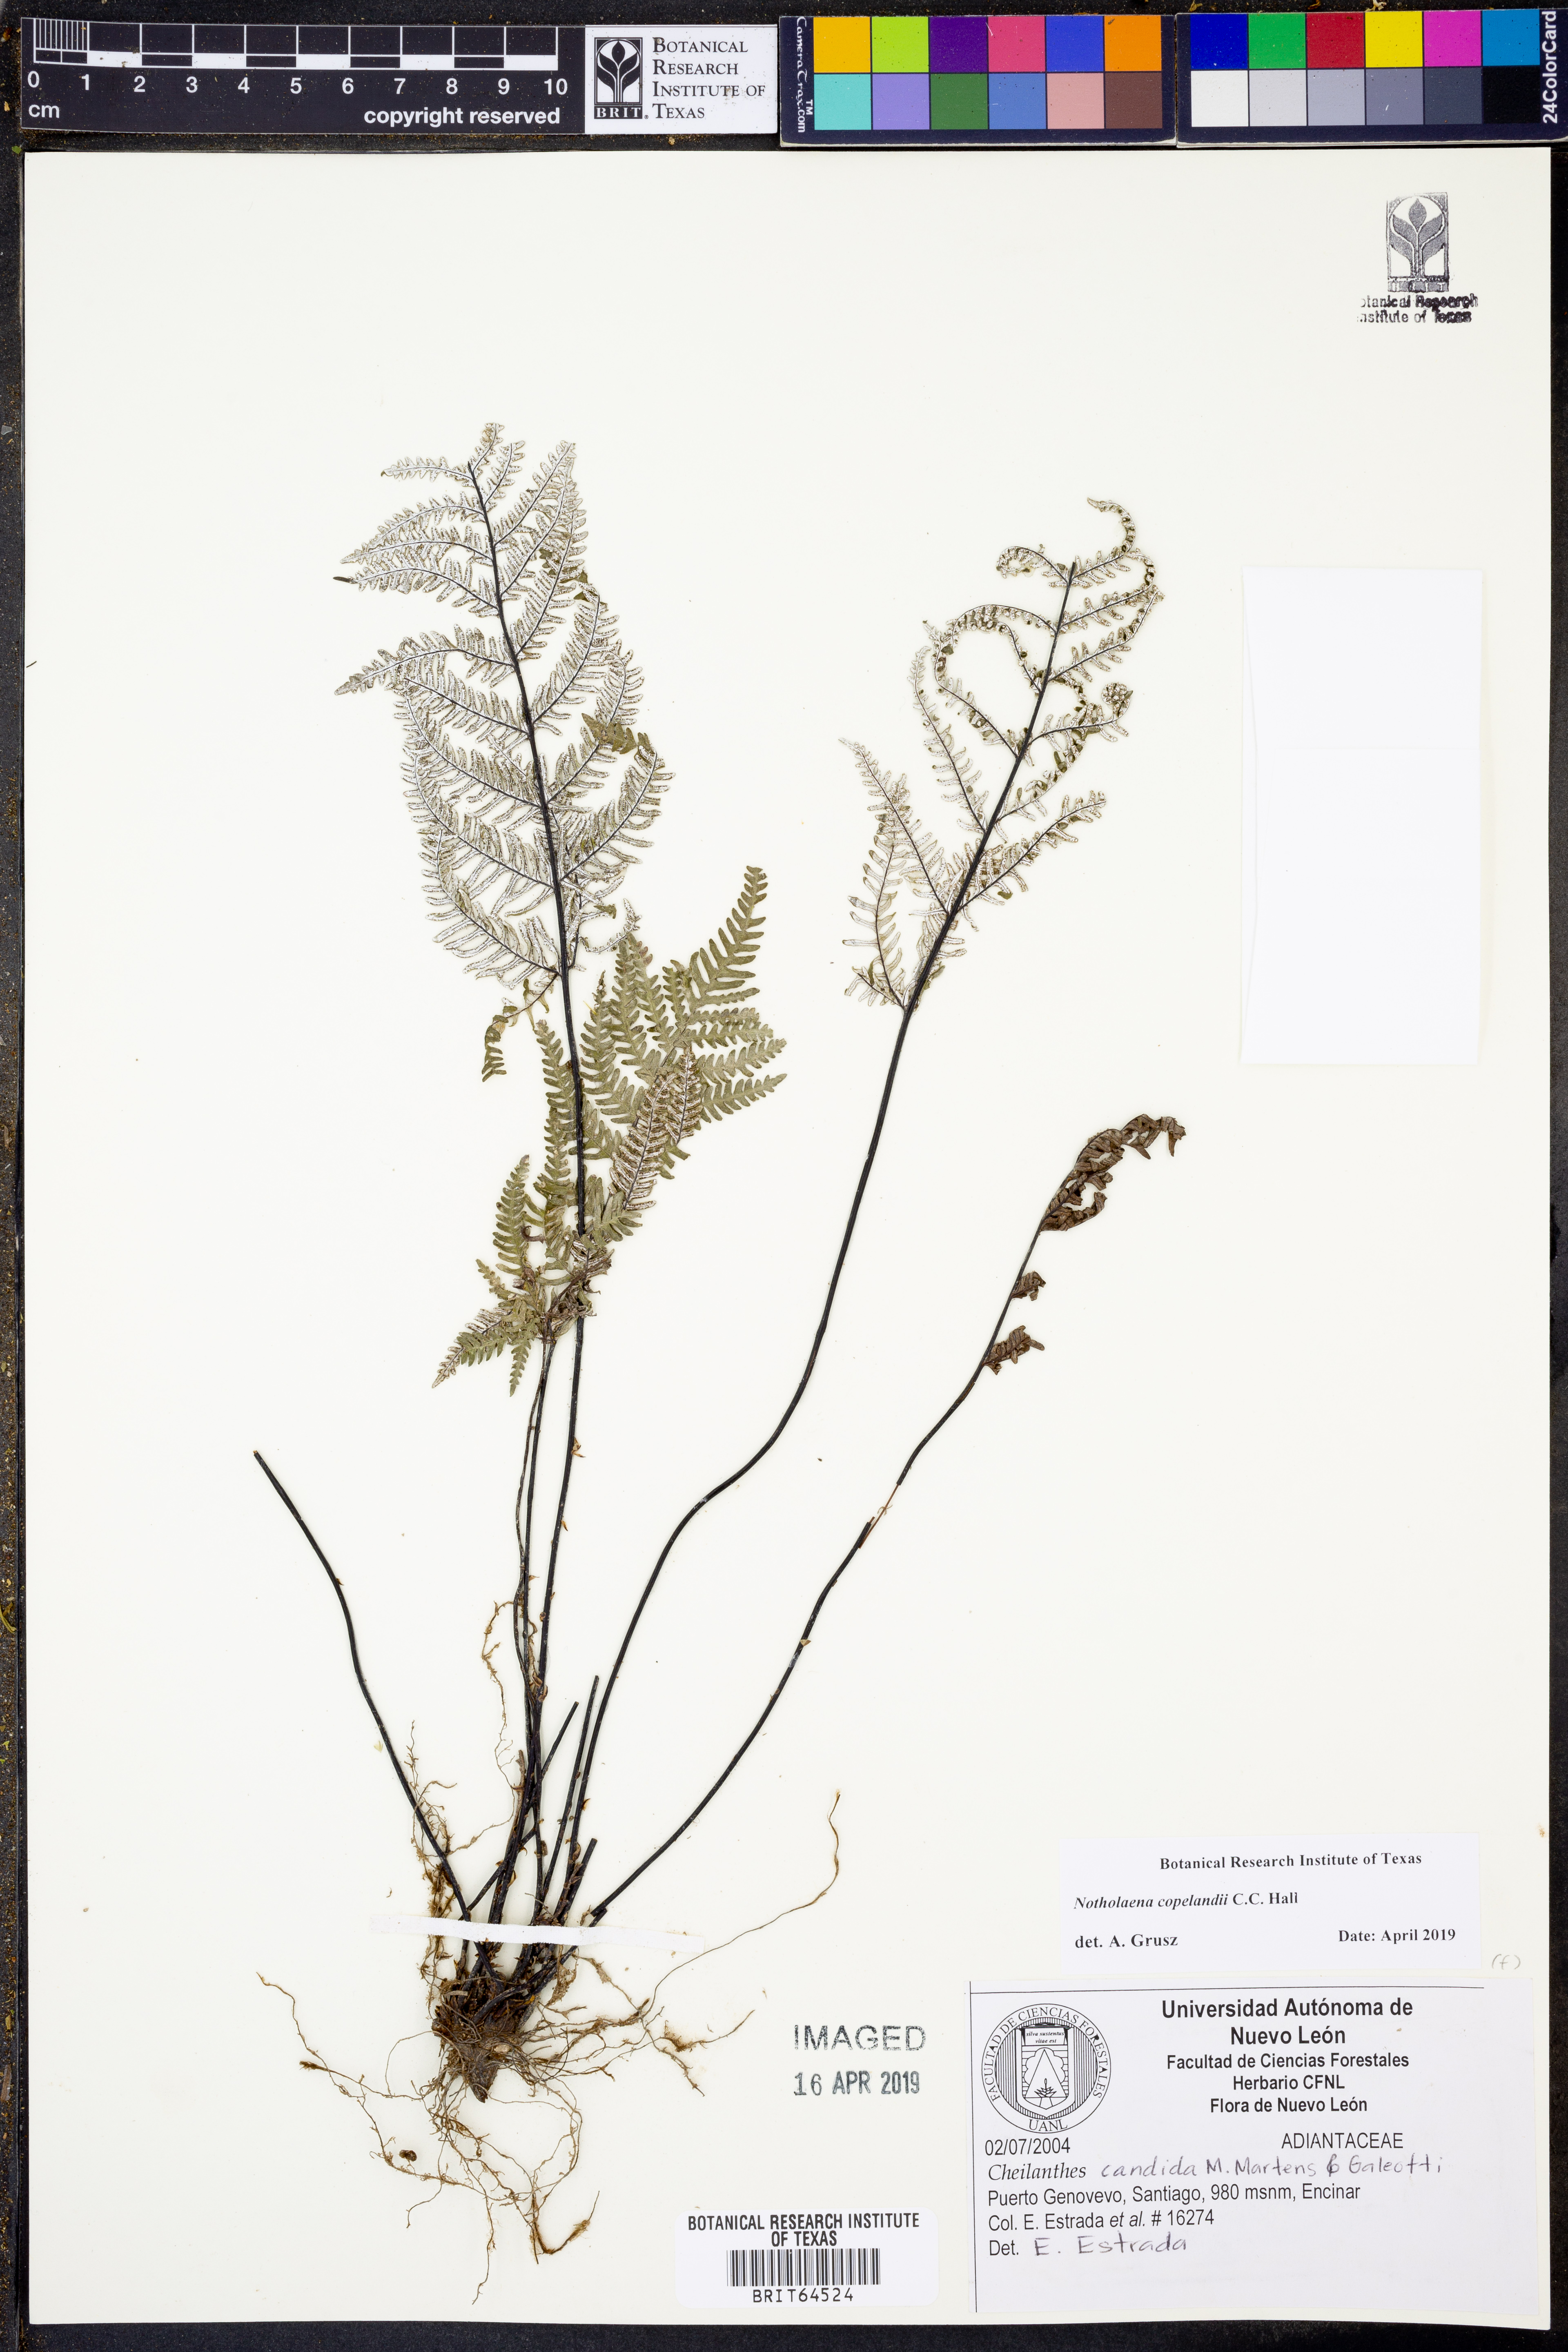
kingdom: Plantae
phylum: Tracheophyta
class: Polypodiopsida
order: Polypodiales
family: Pteridaceae
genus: Notholaena
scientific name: Notholaena candida
